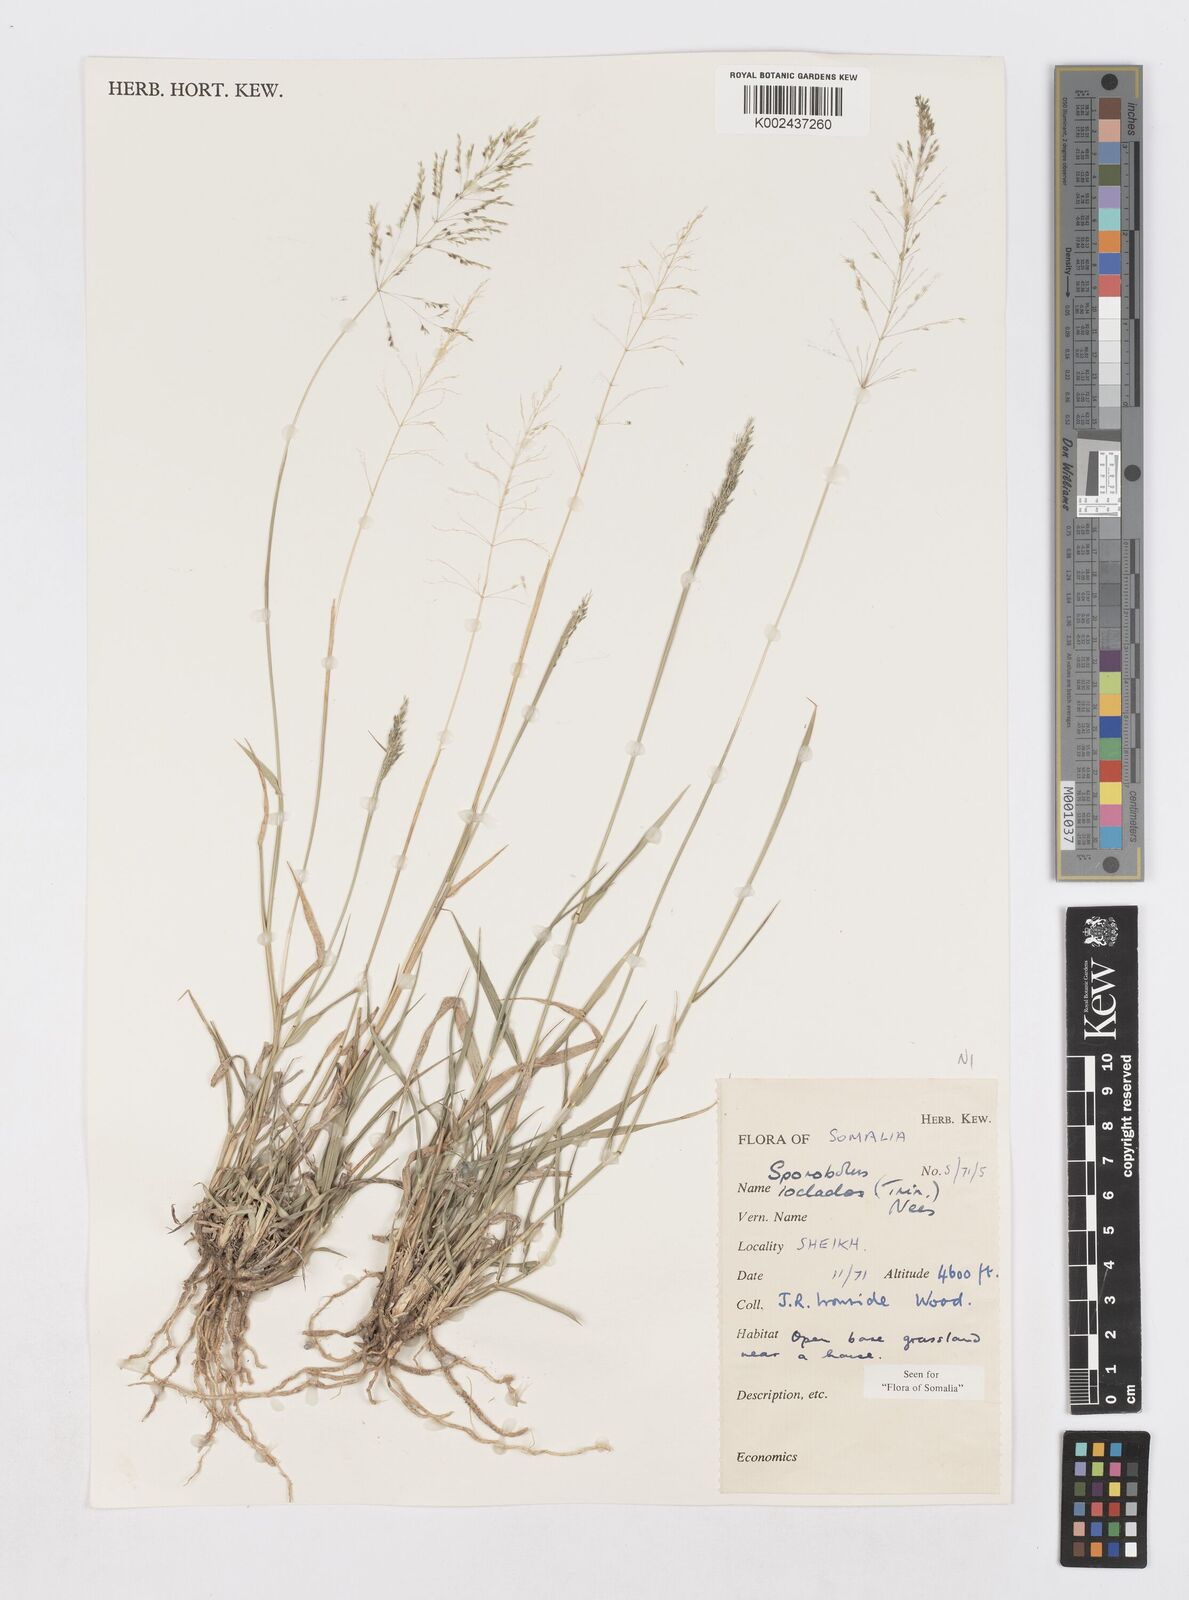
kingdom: Plantae
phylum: Tracheophyta
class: Liliopsida
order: Poales
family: Poaceae
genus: Sporobolus
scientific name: Sporobolus ioclados
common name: Pan dropseed
